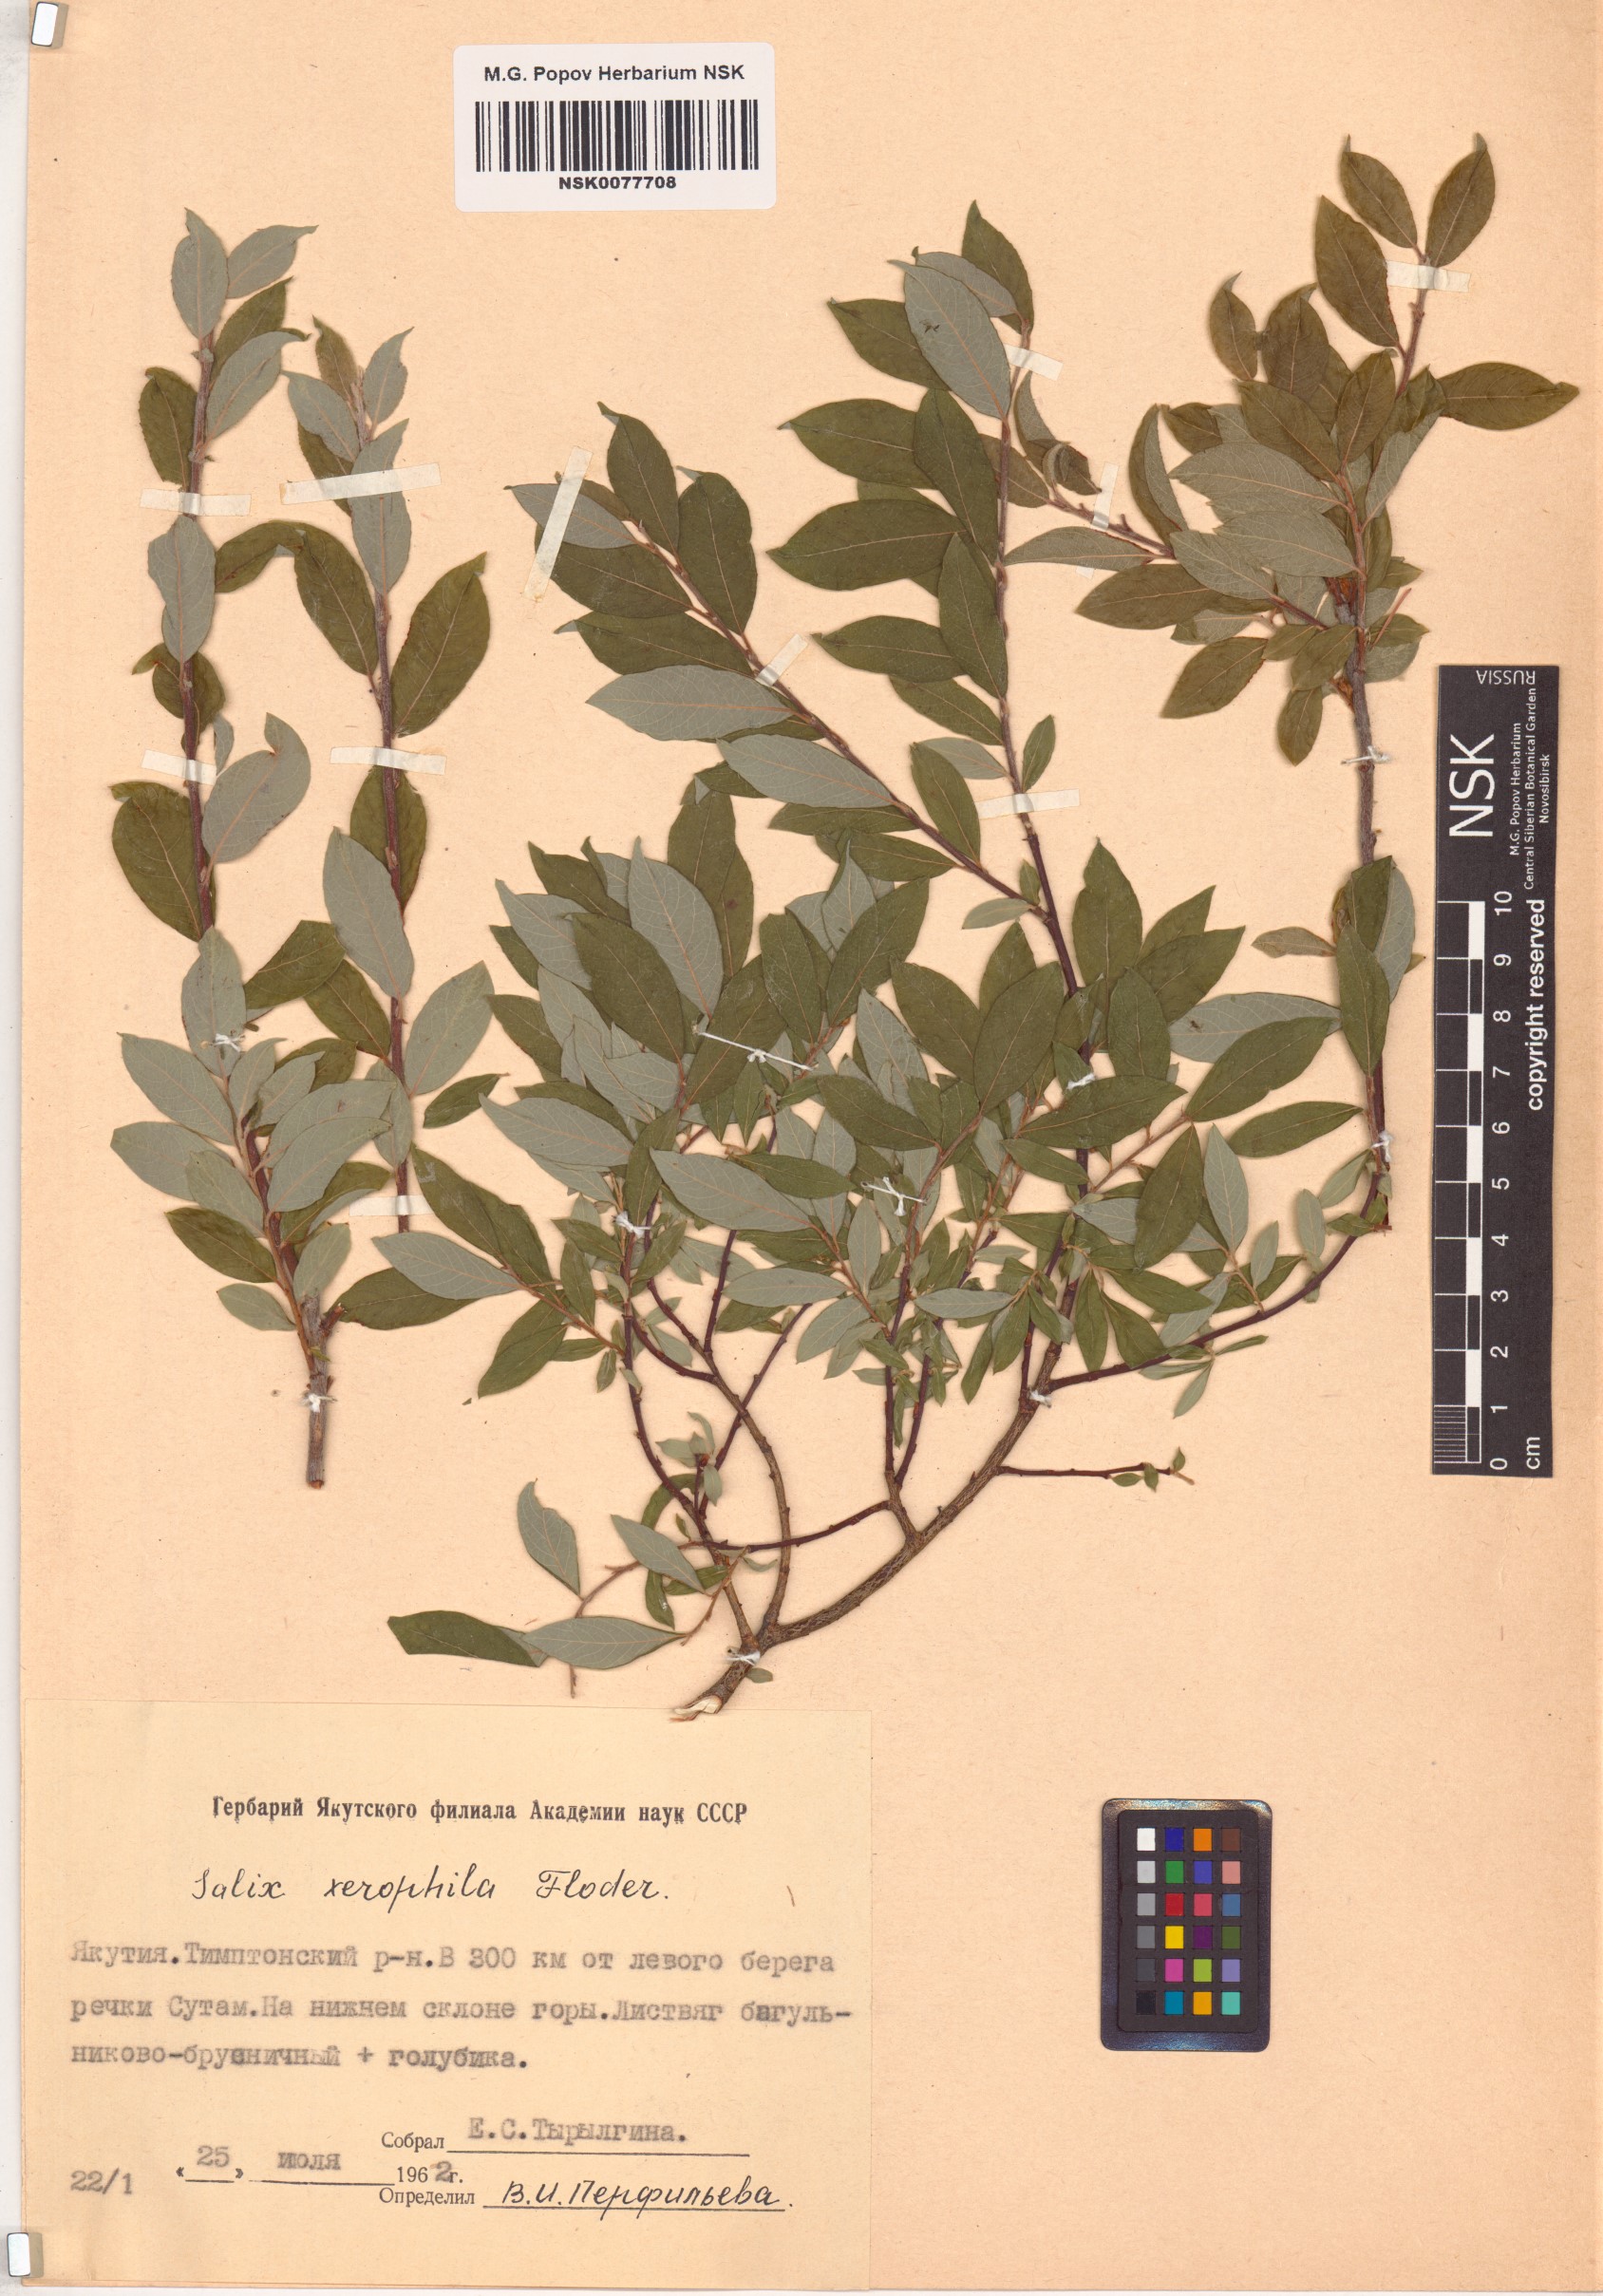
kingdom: Plantae
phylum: Tracheophyta
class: Magnoliopsida
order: Malpighiales
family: Salicaceae
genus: Salix
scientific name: Salix bebbiana
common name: Bebb's willow
